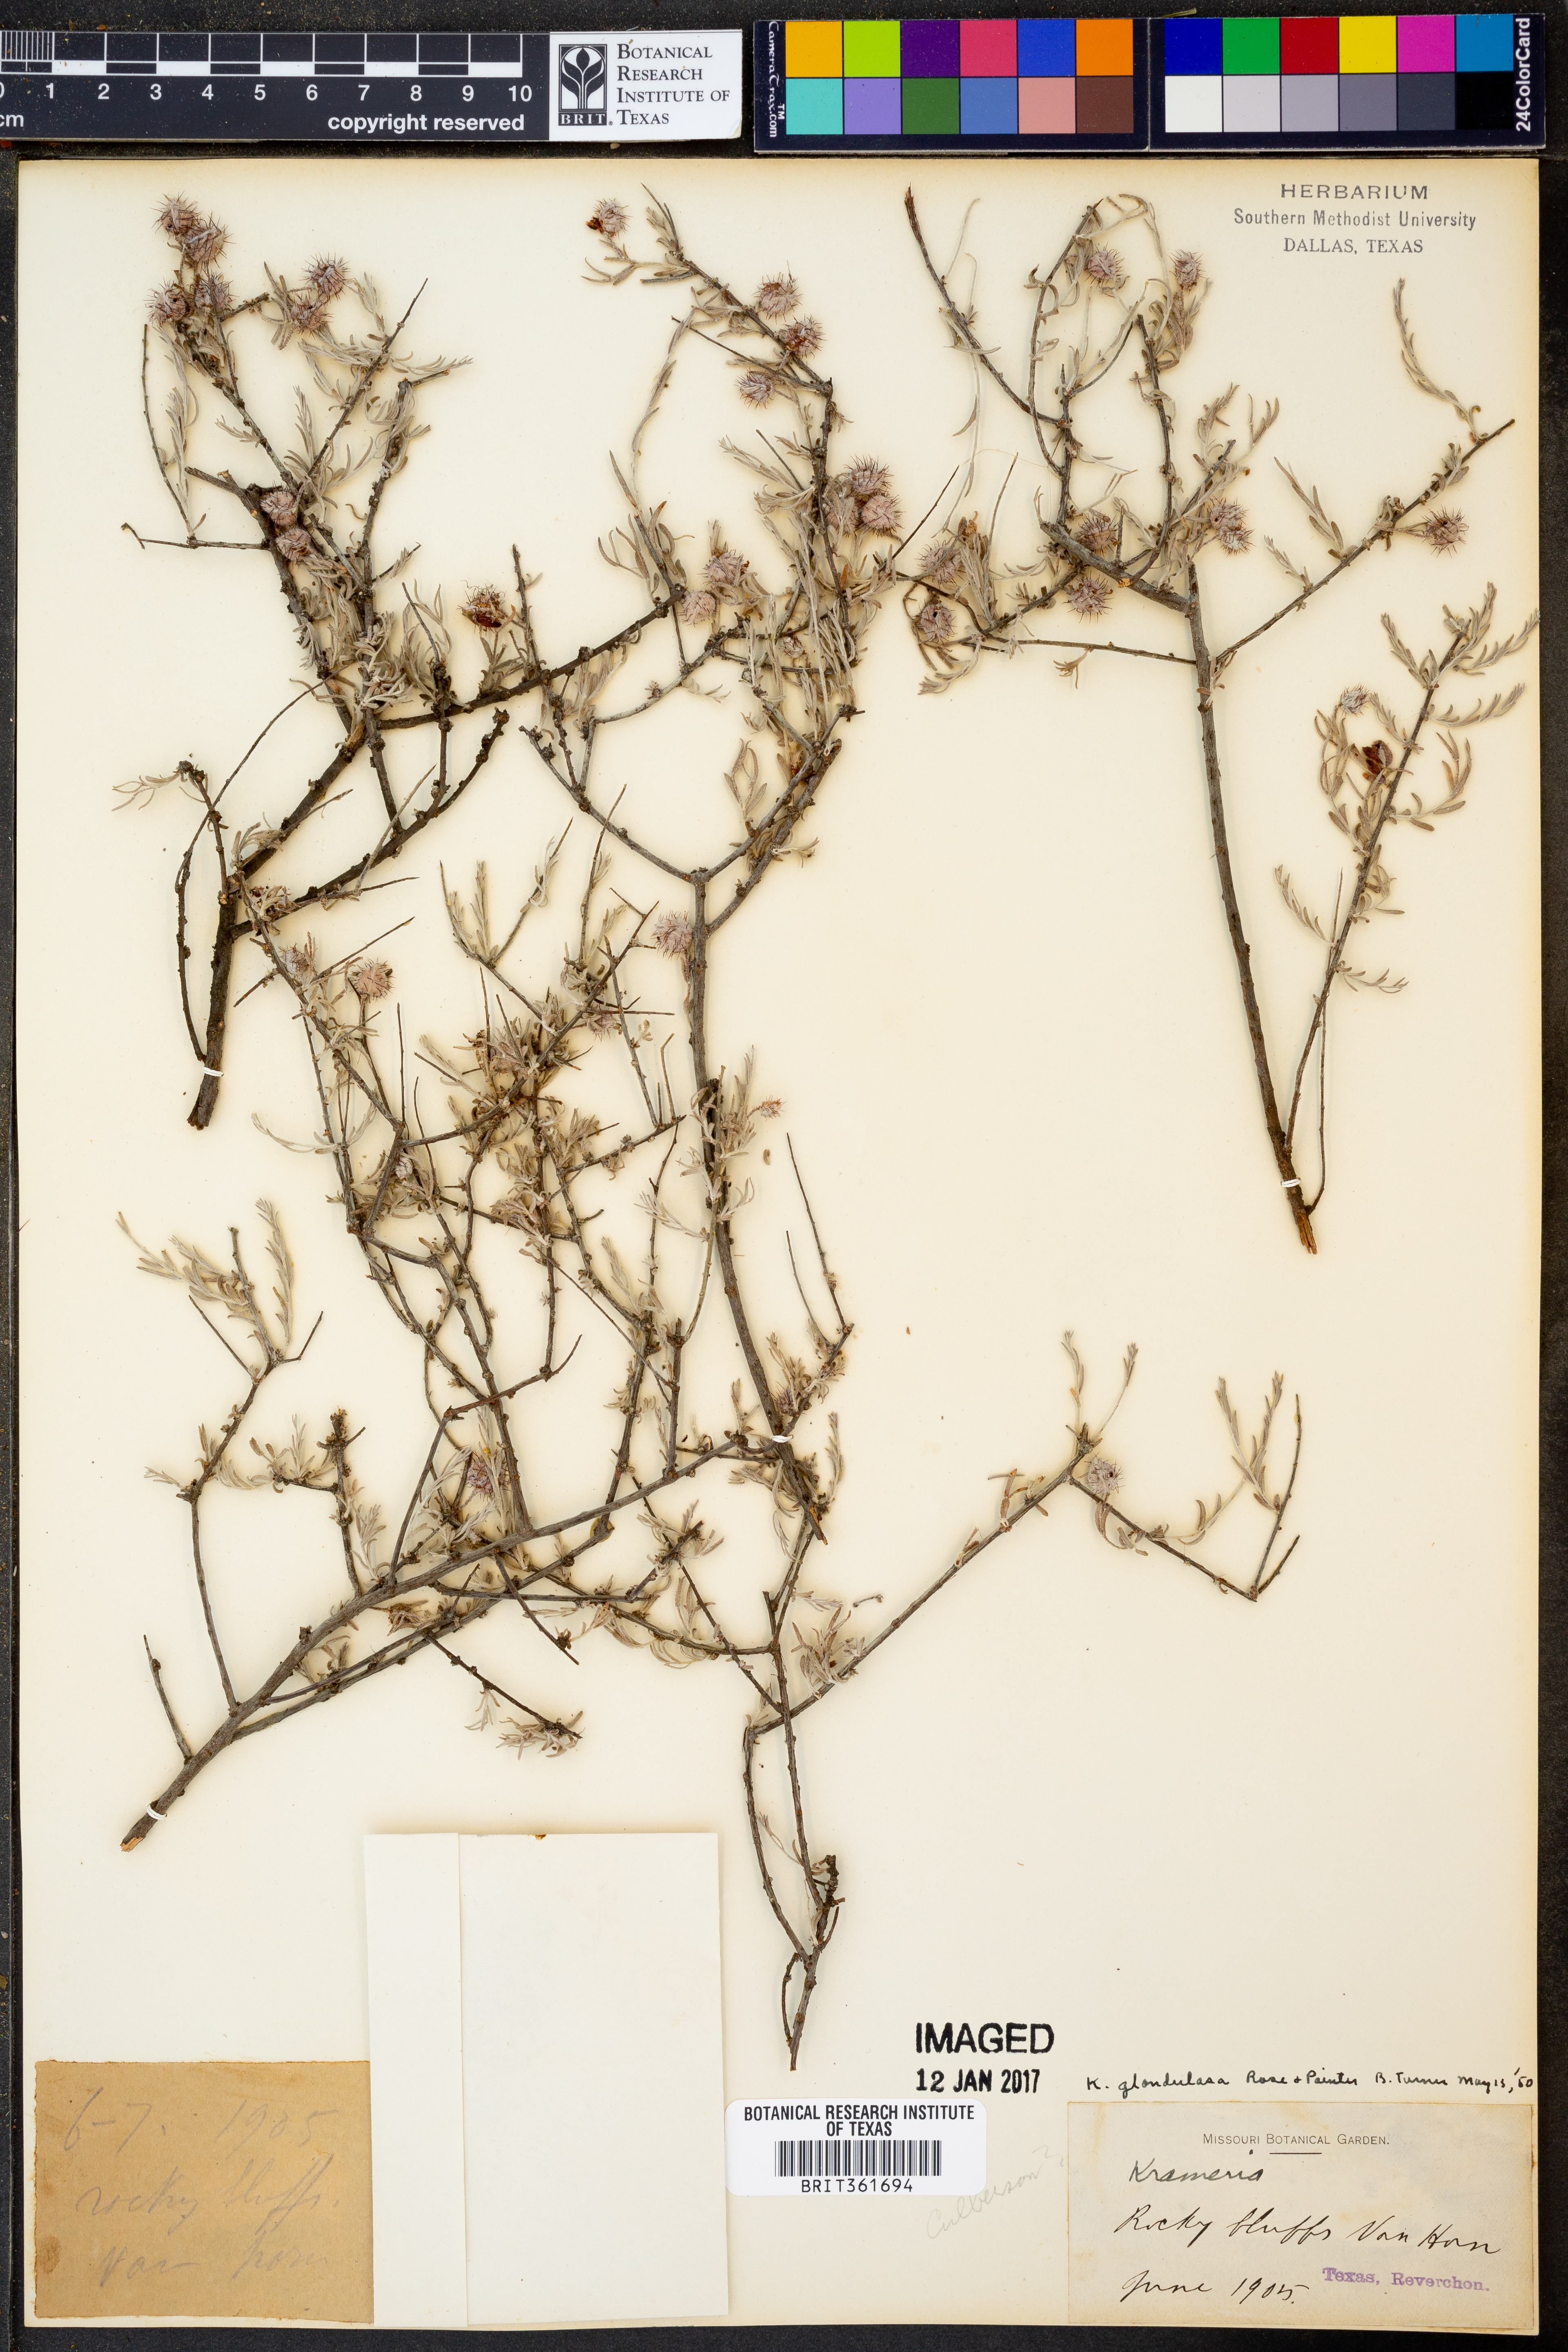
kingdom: Plantae
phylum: Tracheophyta
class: Magnoliopsida
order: Zygophyllales
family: Krameriaceae
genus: Krameria
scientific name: Krameria erecta
